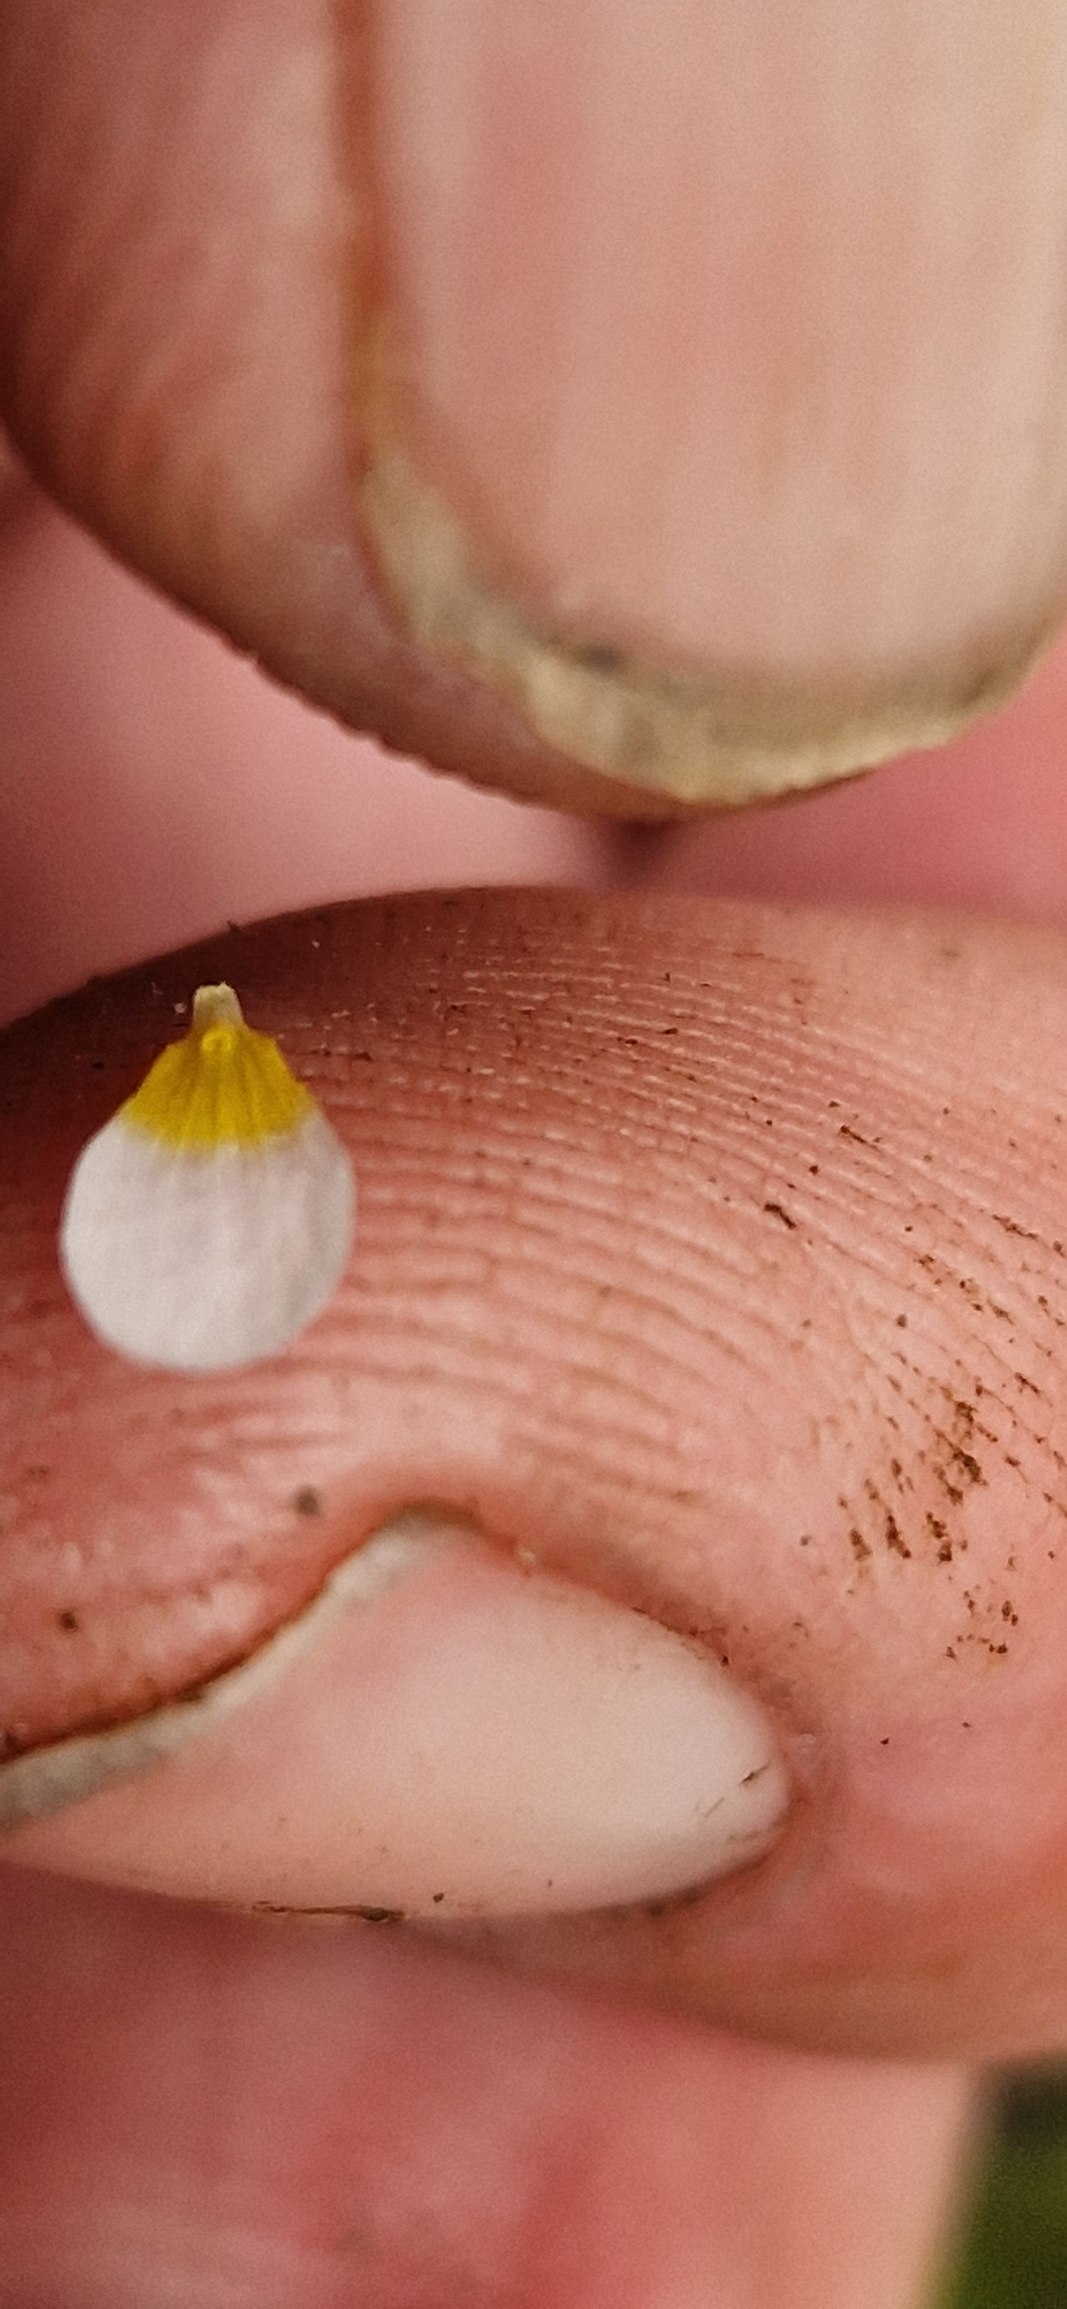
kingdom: Plantae
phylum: Tracheophyta
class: Magnoliopsida
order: Ranunculales
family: Ranunculaceae
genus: Ranunculus
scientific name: Ranunculus aquatilis
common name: Almindelig vandranunkel
